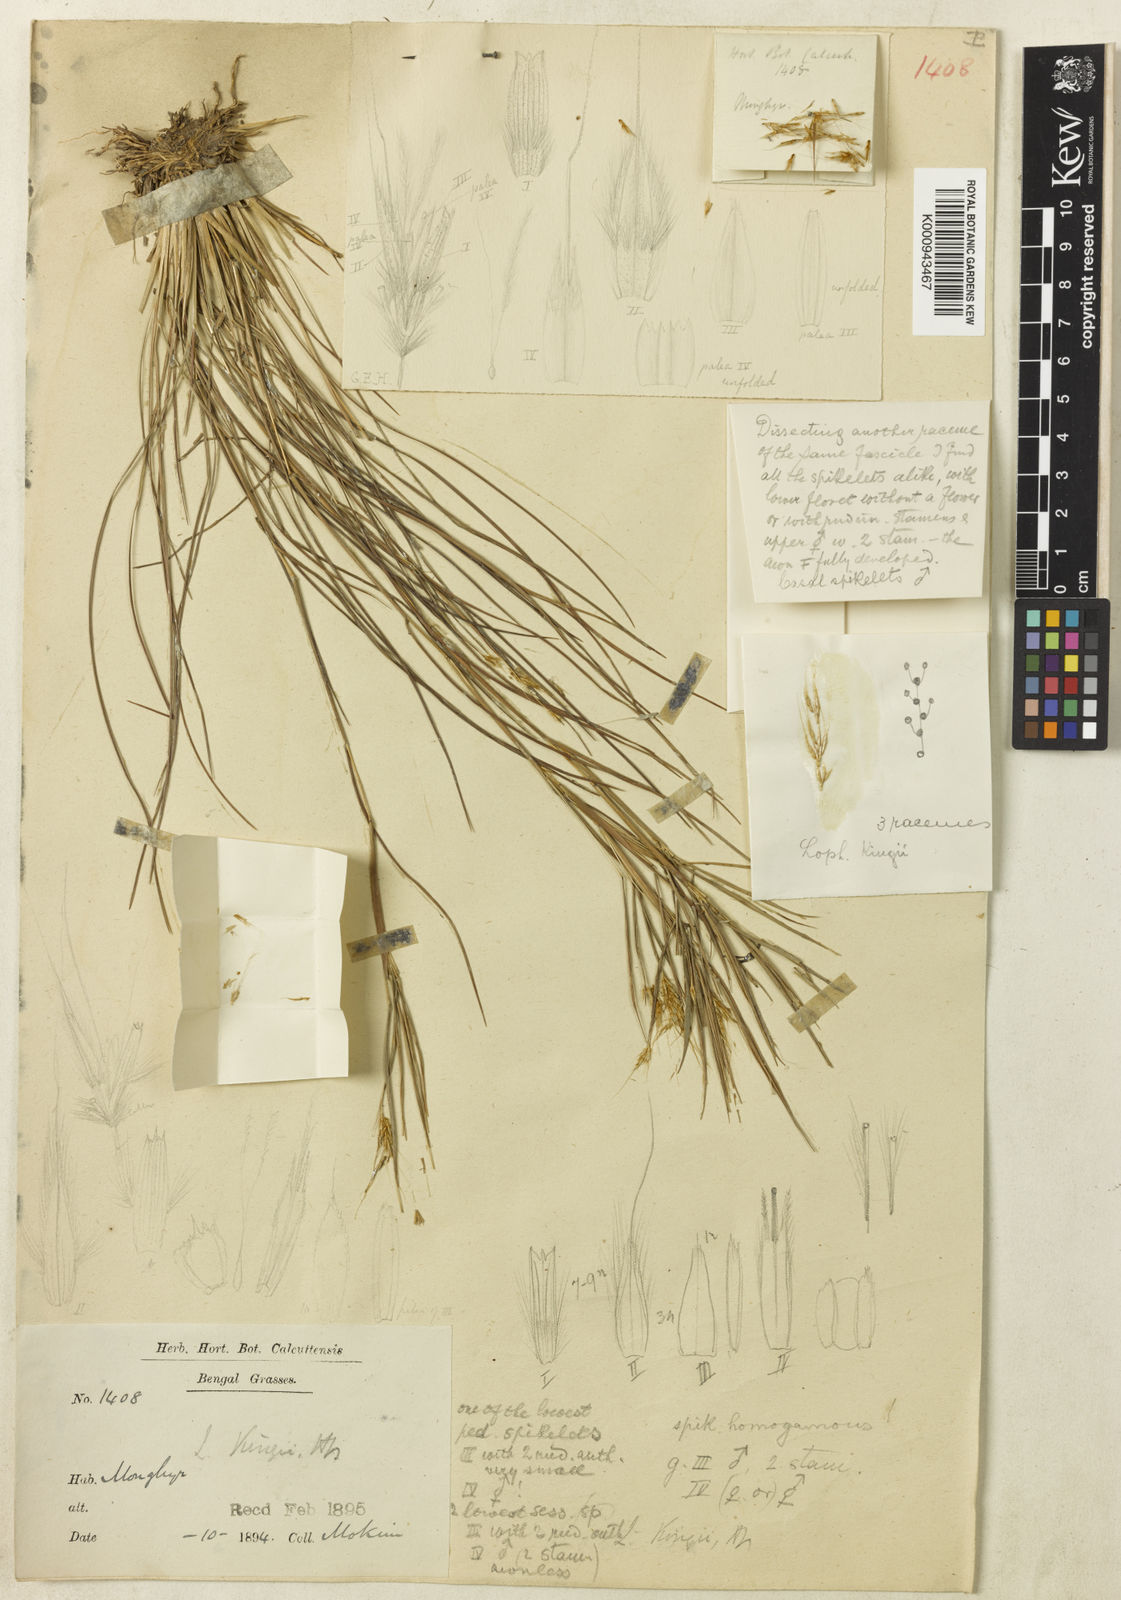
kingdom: Plantae
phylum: Tracheophyta
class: Liliopsida
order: Poales
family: Poaceae
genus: Lophopogon
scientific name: Lophopogon kingii
